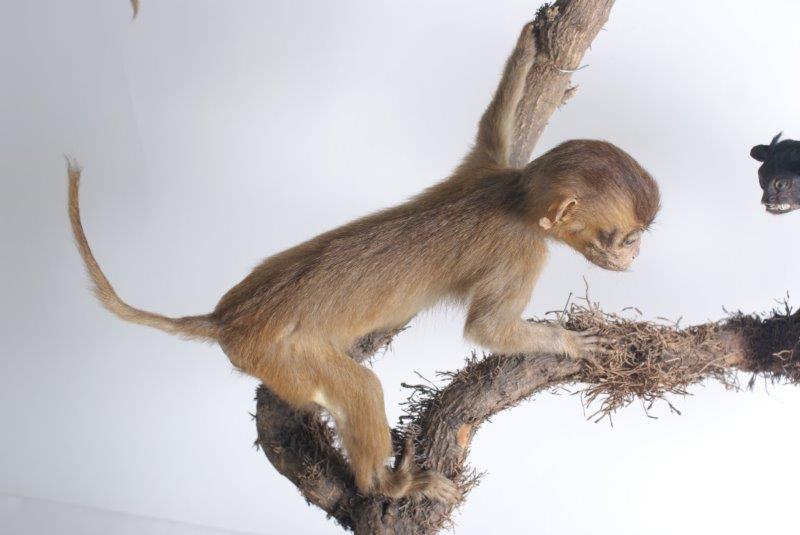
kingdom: Animalia
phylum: Chordata
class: Mammalia
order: Primates
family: Cercopithecidae
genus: Macaca
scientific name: Macaca
